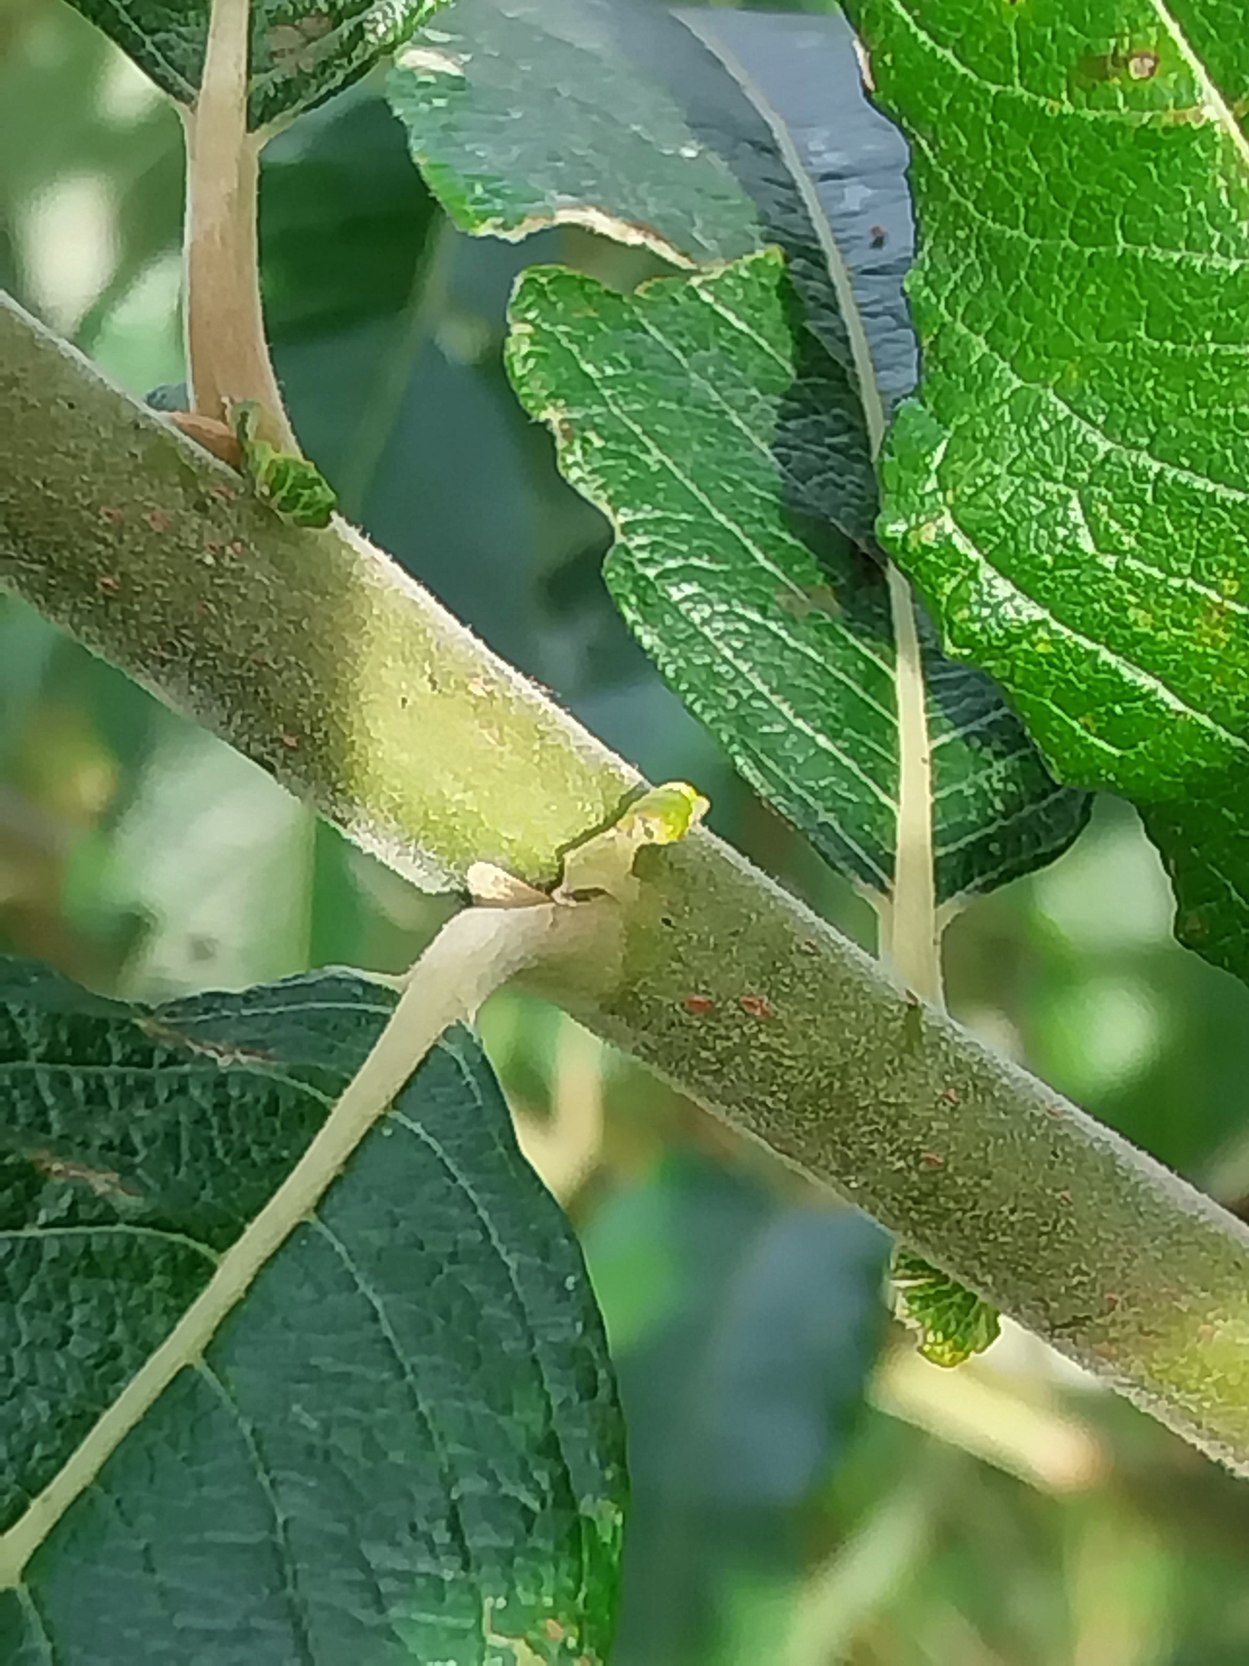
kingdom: Plantae
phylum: Tracheophyta
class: Magnoliopsida
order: Malpighiales
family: Salicaceae
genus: Salix
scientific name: Salix calodendron
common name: Smuk pil
